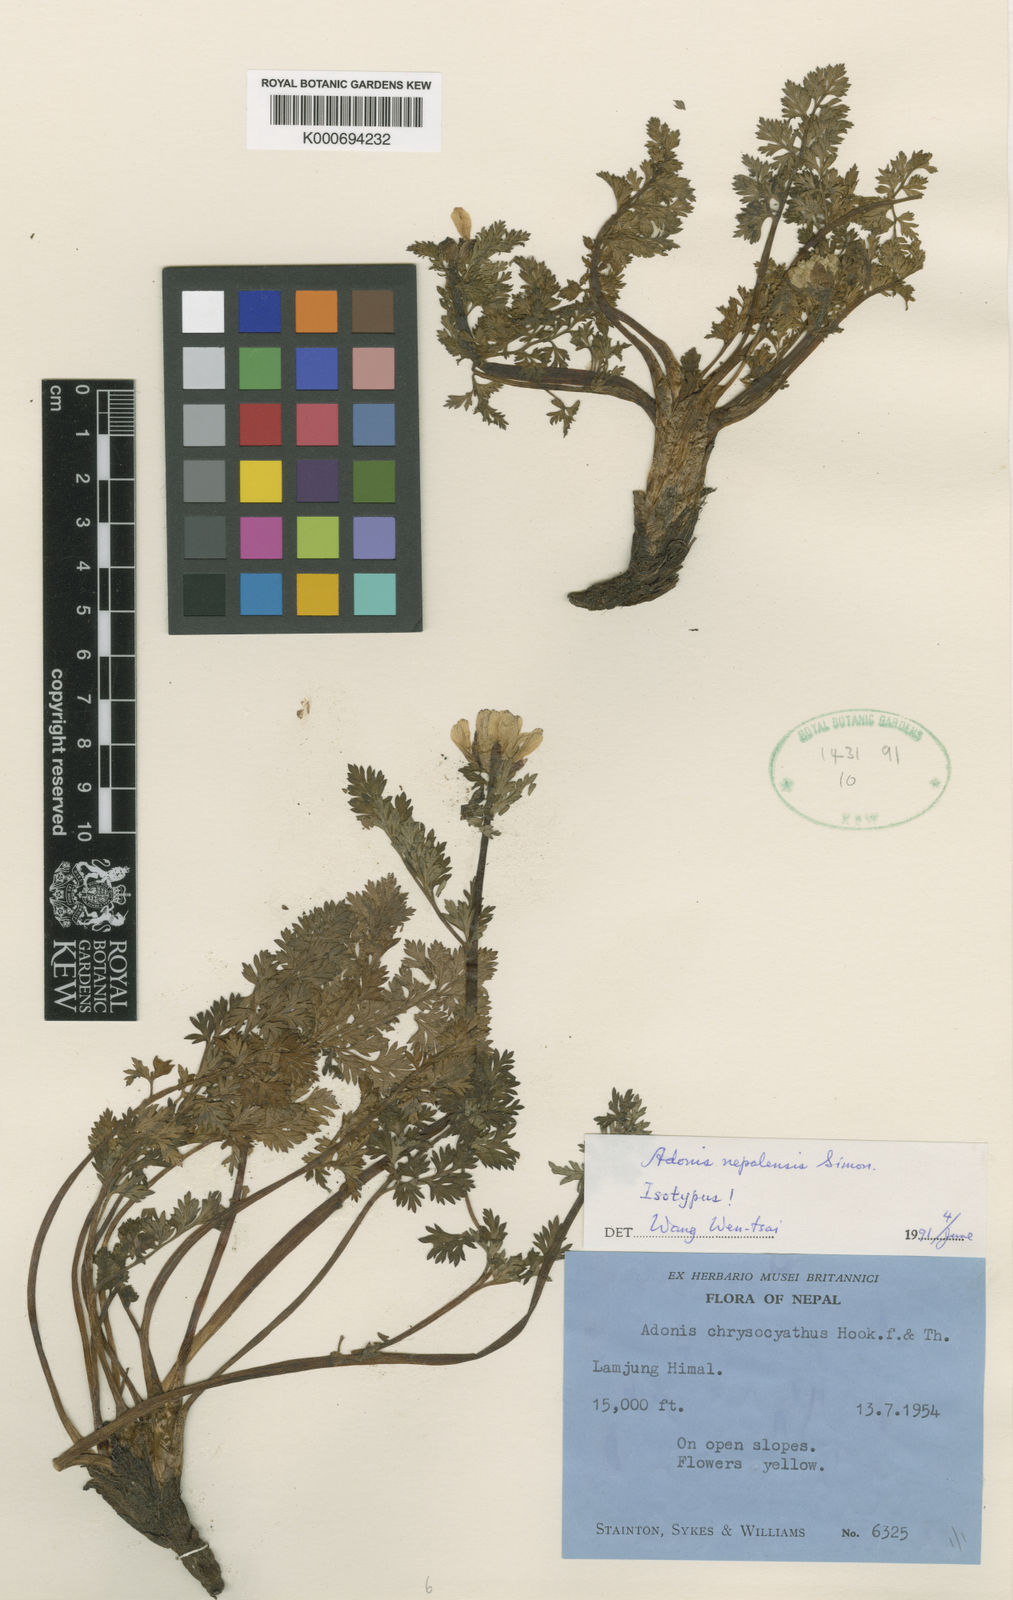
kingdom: Plantae
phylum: Tracheophyta
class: Magnoliopsida
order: Ranunculales
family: Ranunculaceae
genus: Adonis
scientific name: Adonis nepalensis
